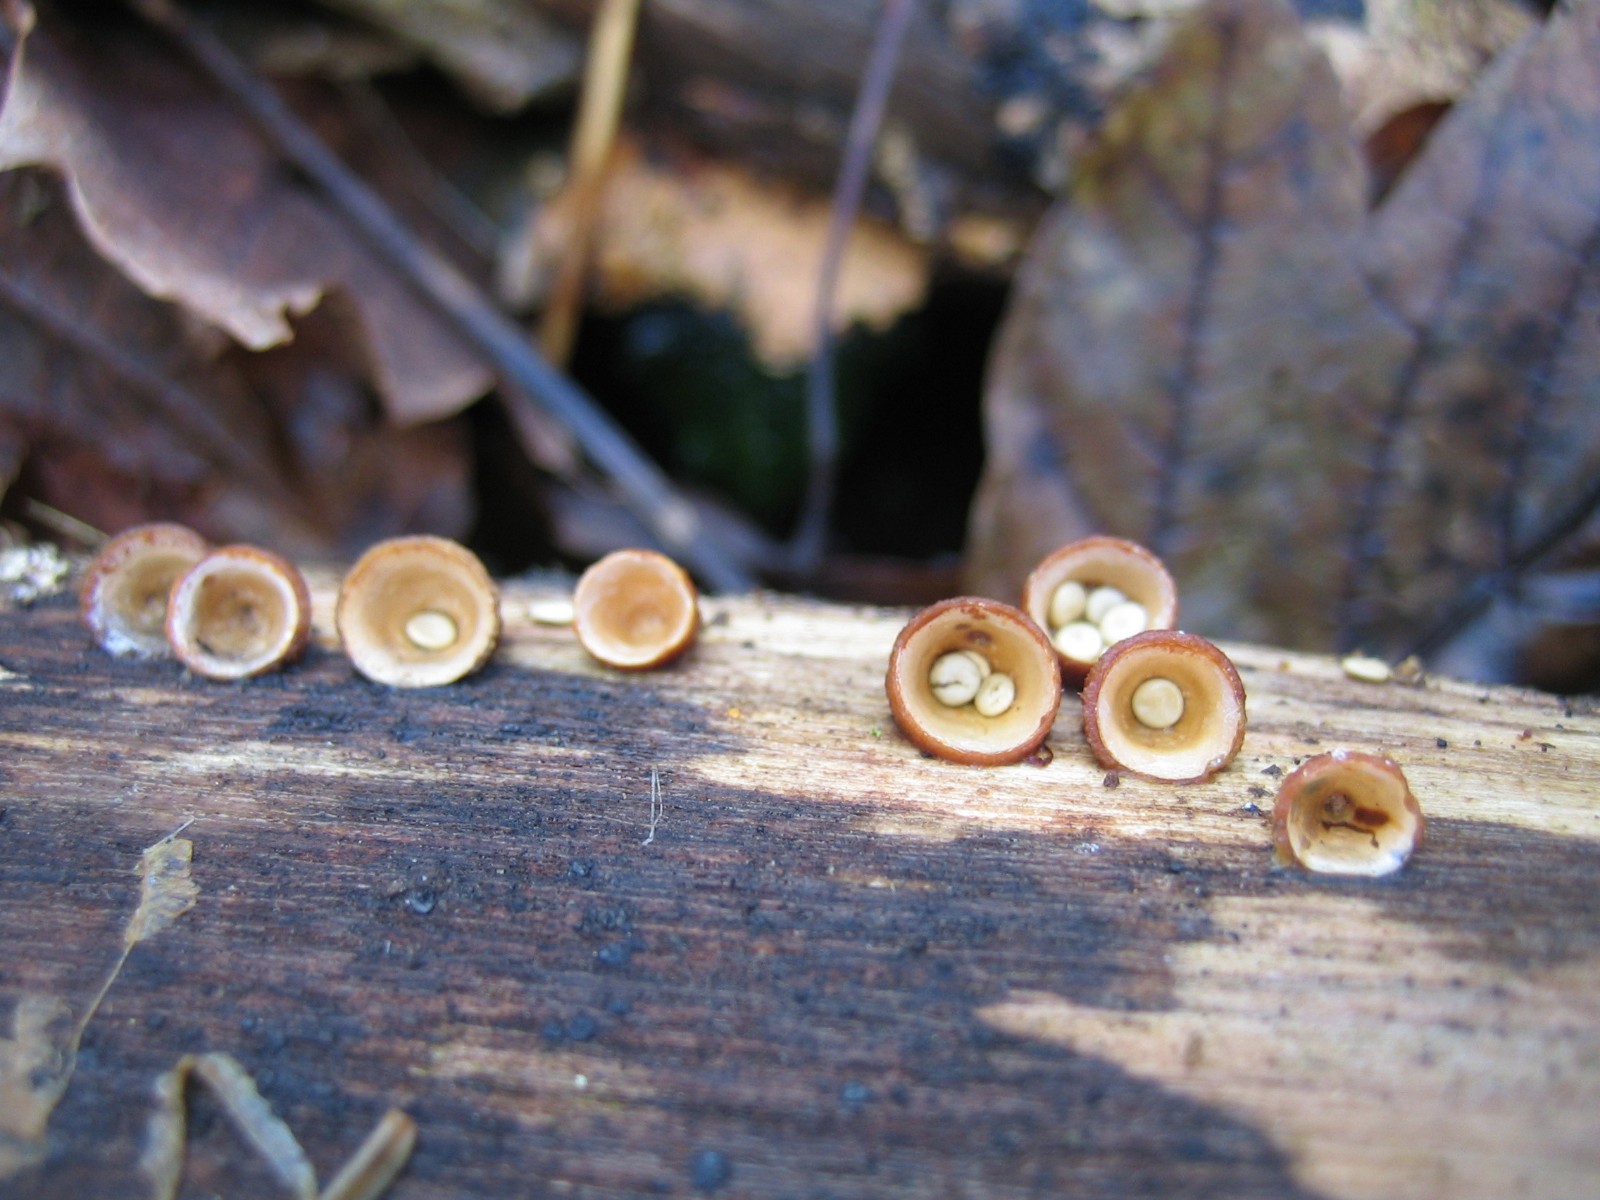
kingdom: Fungi
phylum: Basidiomycota
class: Agaricomycetes
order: Agaricales
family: Nidulariaceae
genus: Crucibulum
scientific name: Crucibulum crucibuliforme
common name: krukkesvamp
